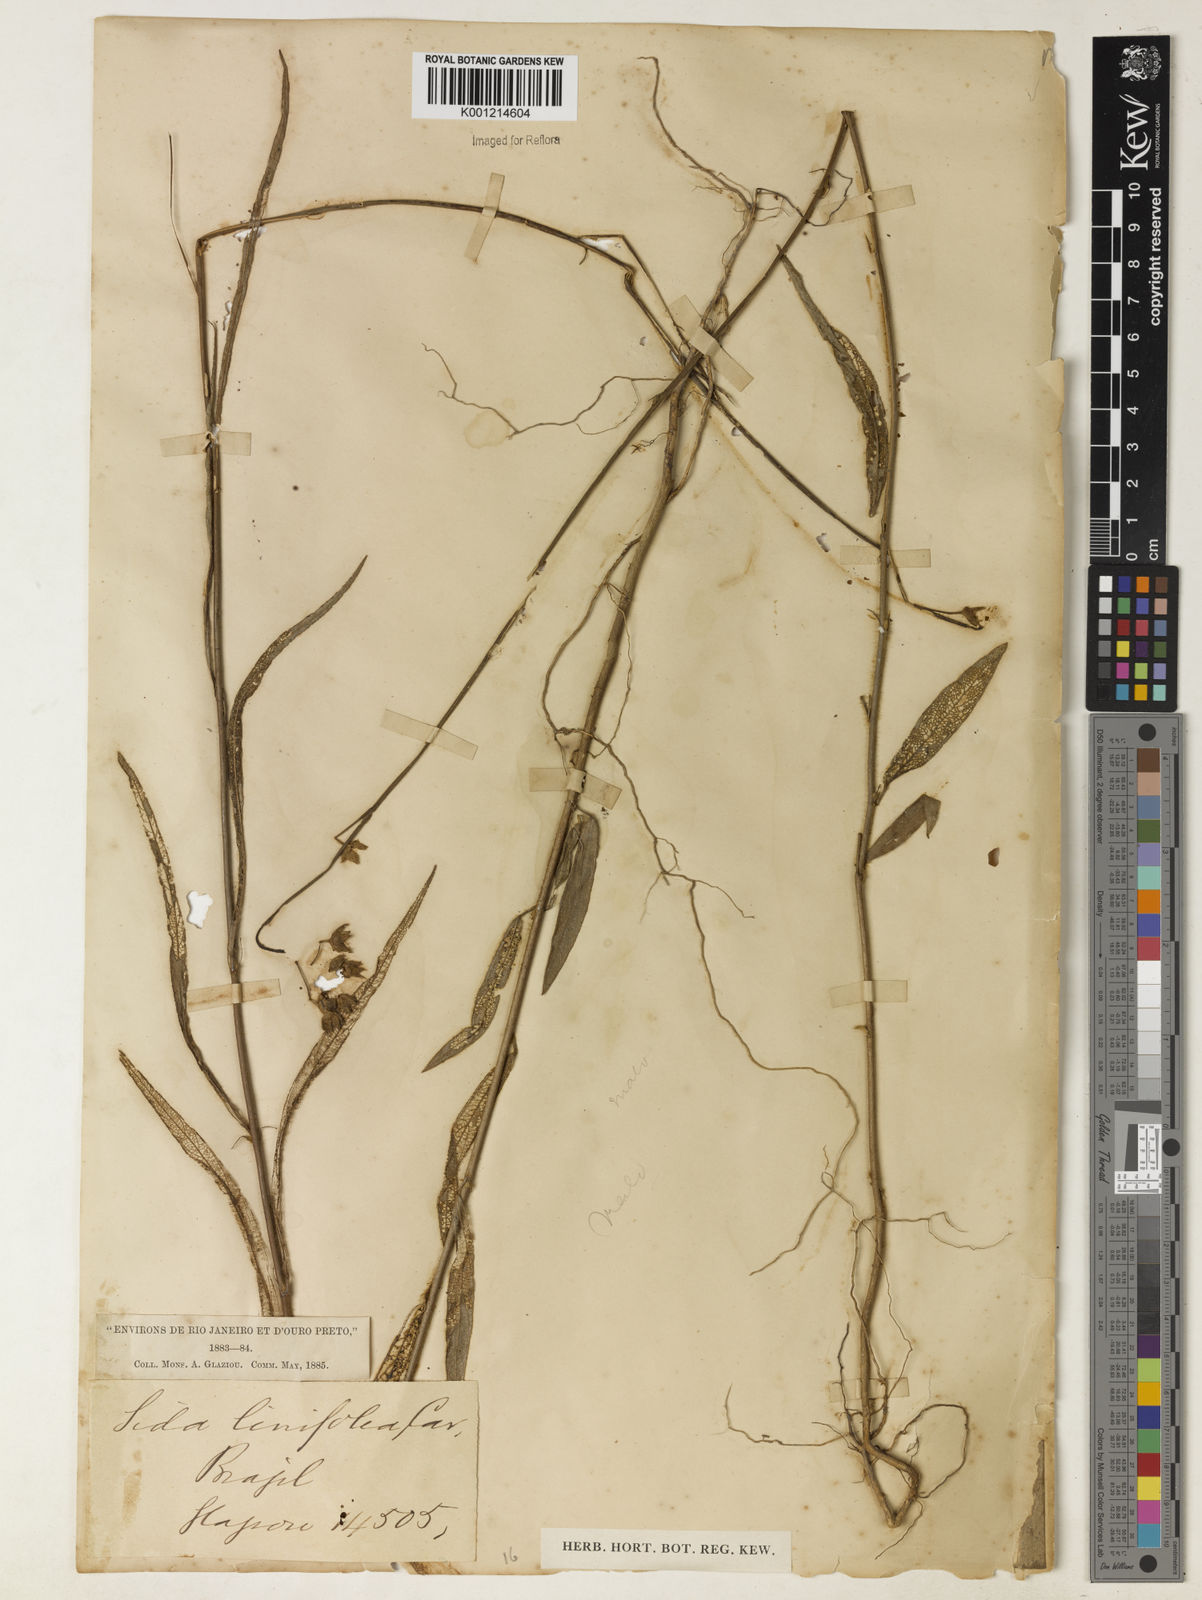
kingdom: Plantae
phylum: Tracheophyta
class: Magnoliopsida
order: Malvales
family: Malvaceae
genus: Sida
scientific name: Sida linifolia
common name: Flaxleaf fanpetals
